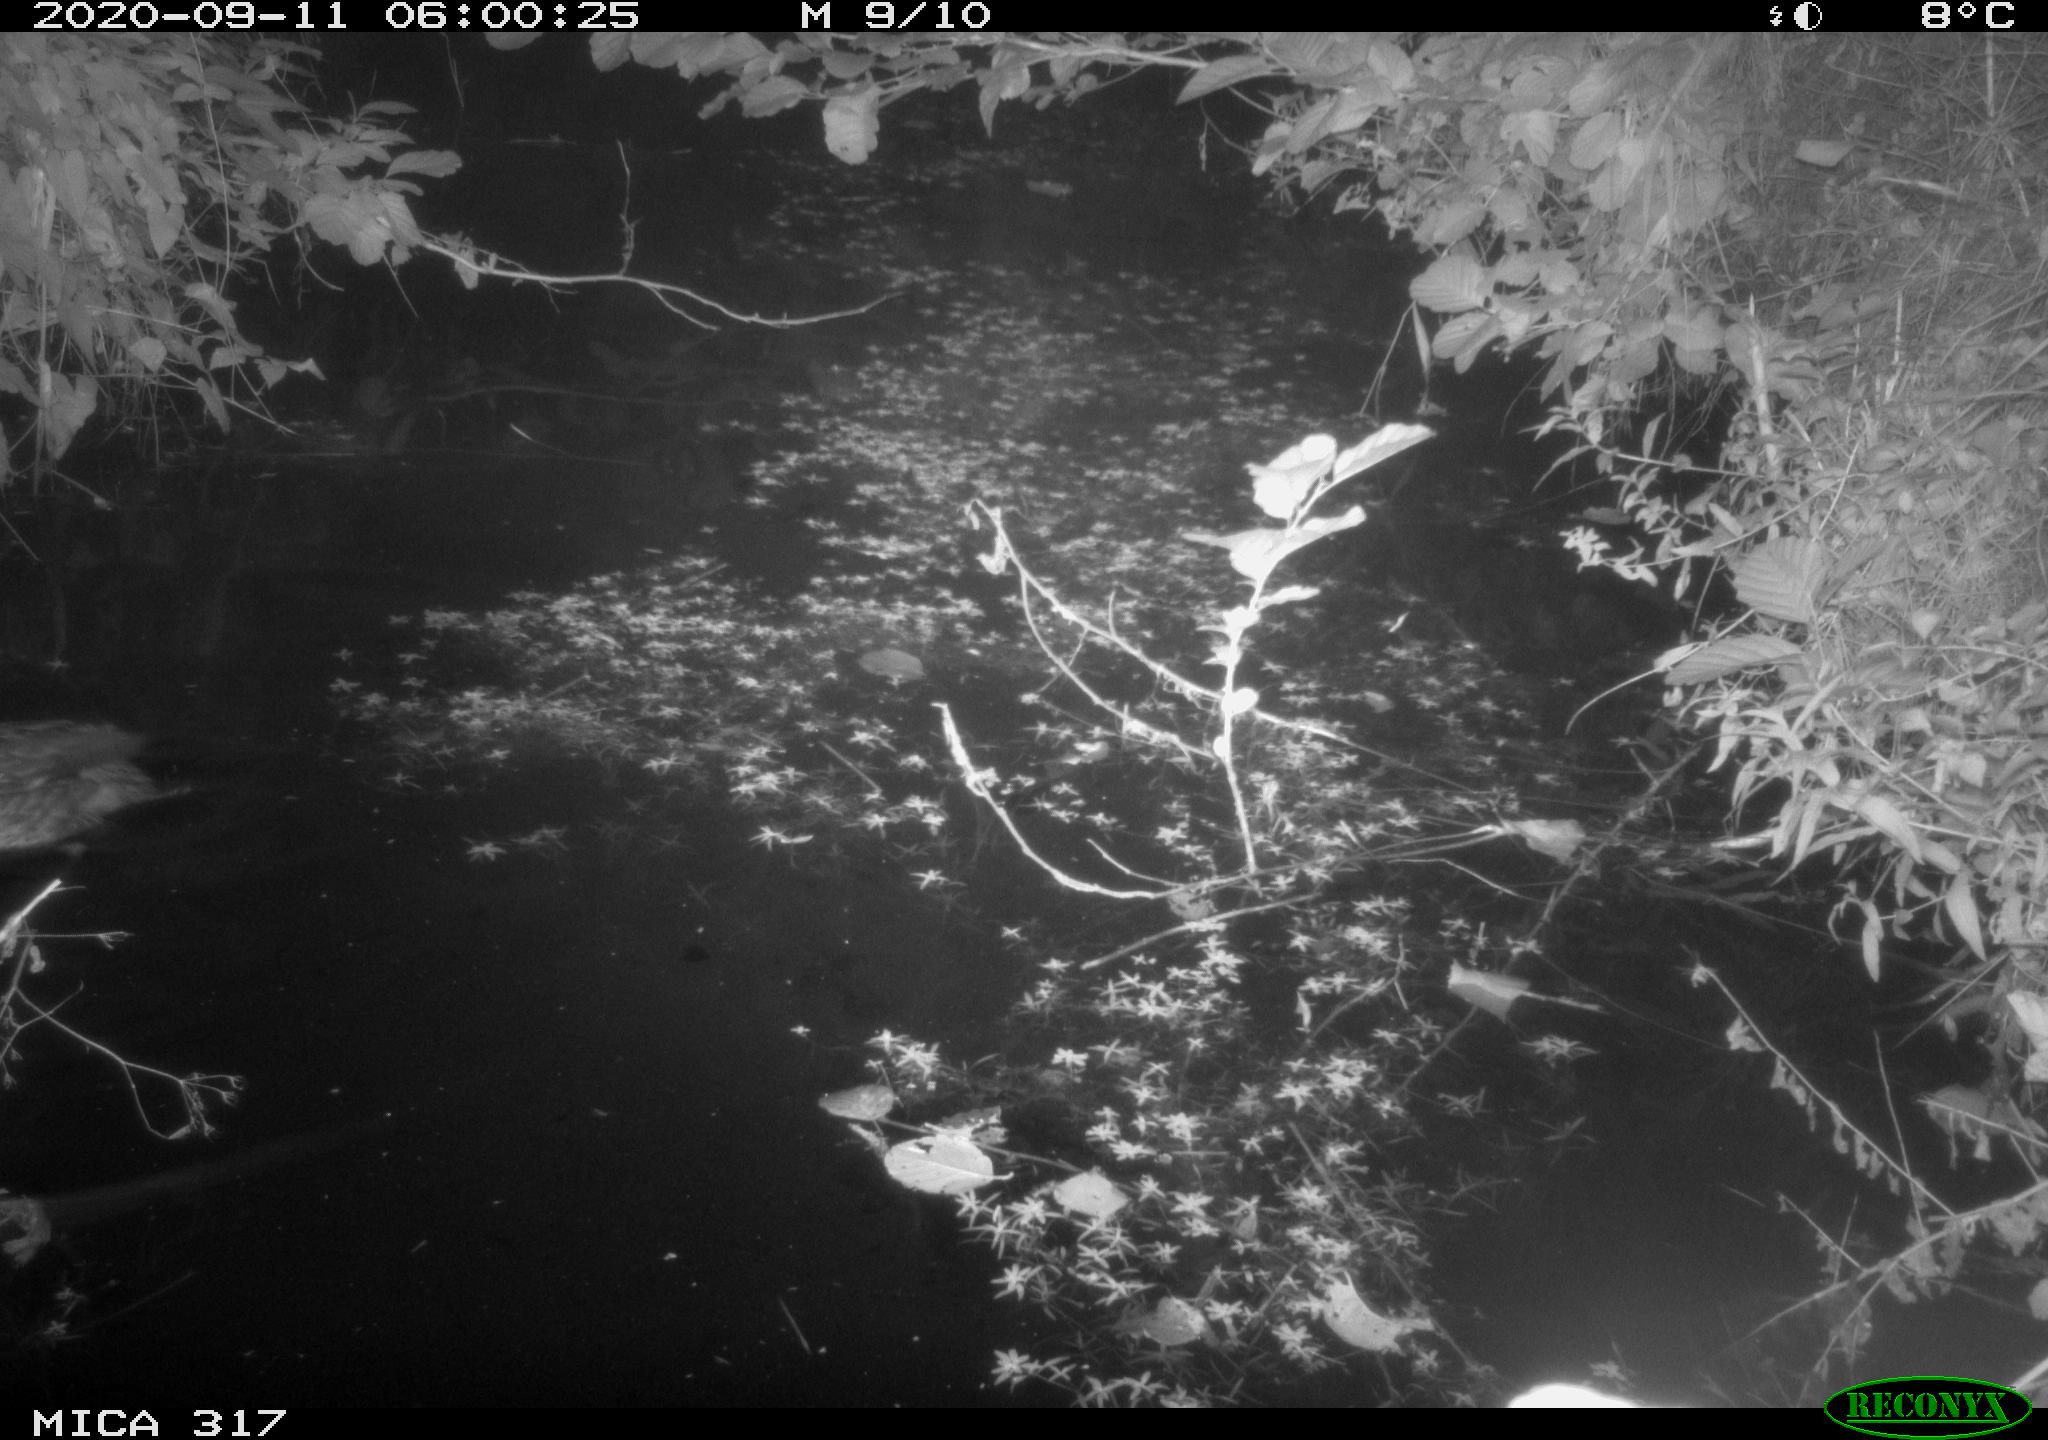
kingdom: Animalia
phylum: Chordata
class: Aves
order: Anseriformes
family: Anatidae
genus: Anas
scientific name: Anas platyrhynchos
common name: Mallard
